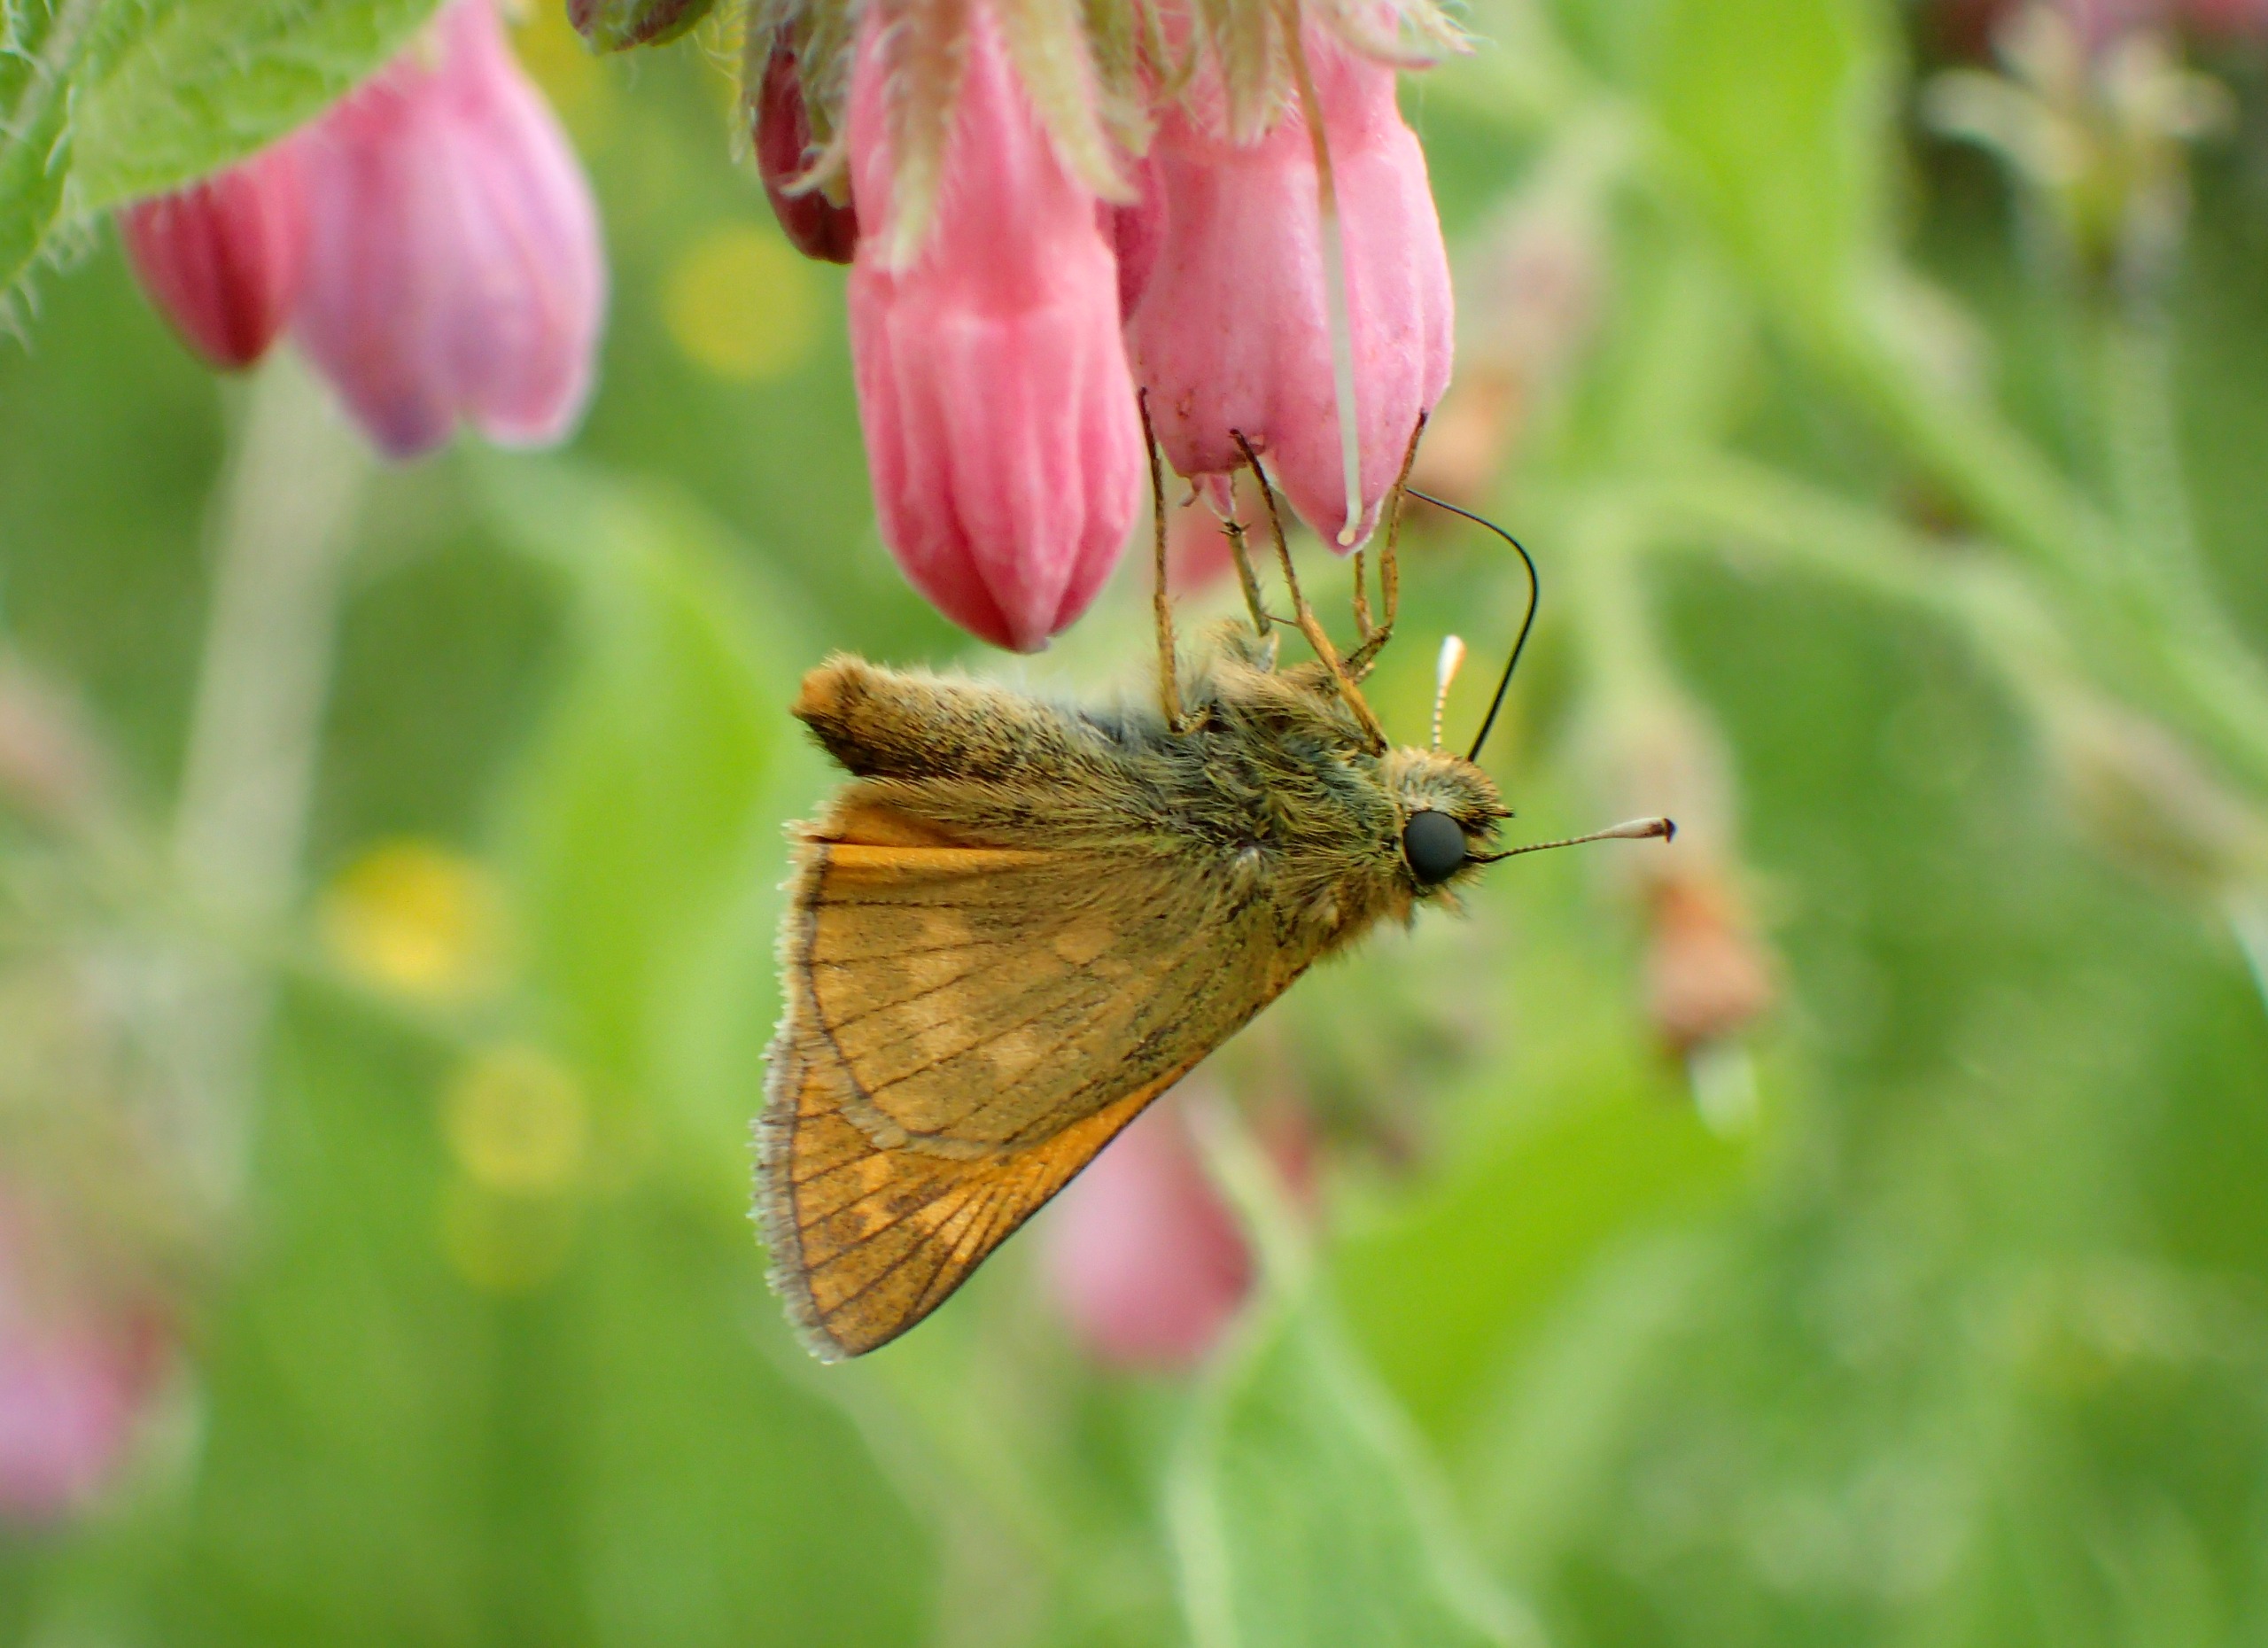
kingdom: Animalia
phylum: Arthropoda
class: Insecta
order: Lepidoptera
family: Hesperiidae
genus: Ochlodes
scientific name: Ochlodes venata
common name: Stor bredpande
